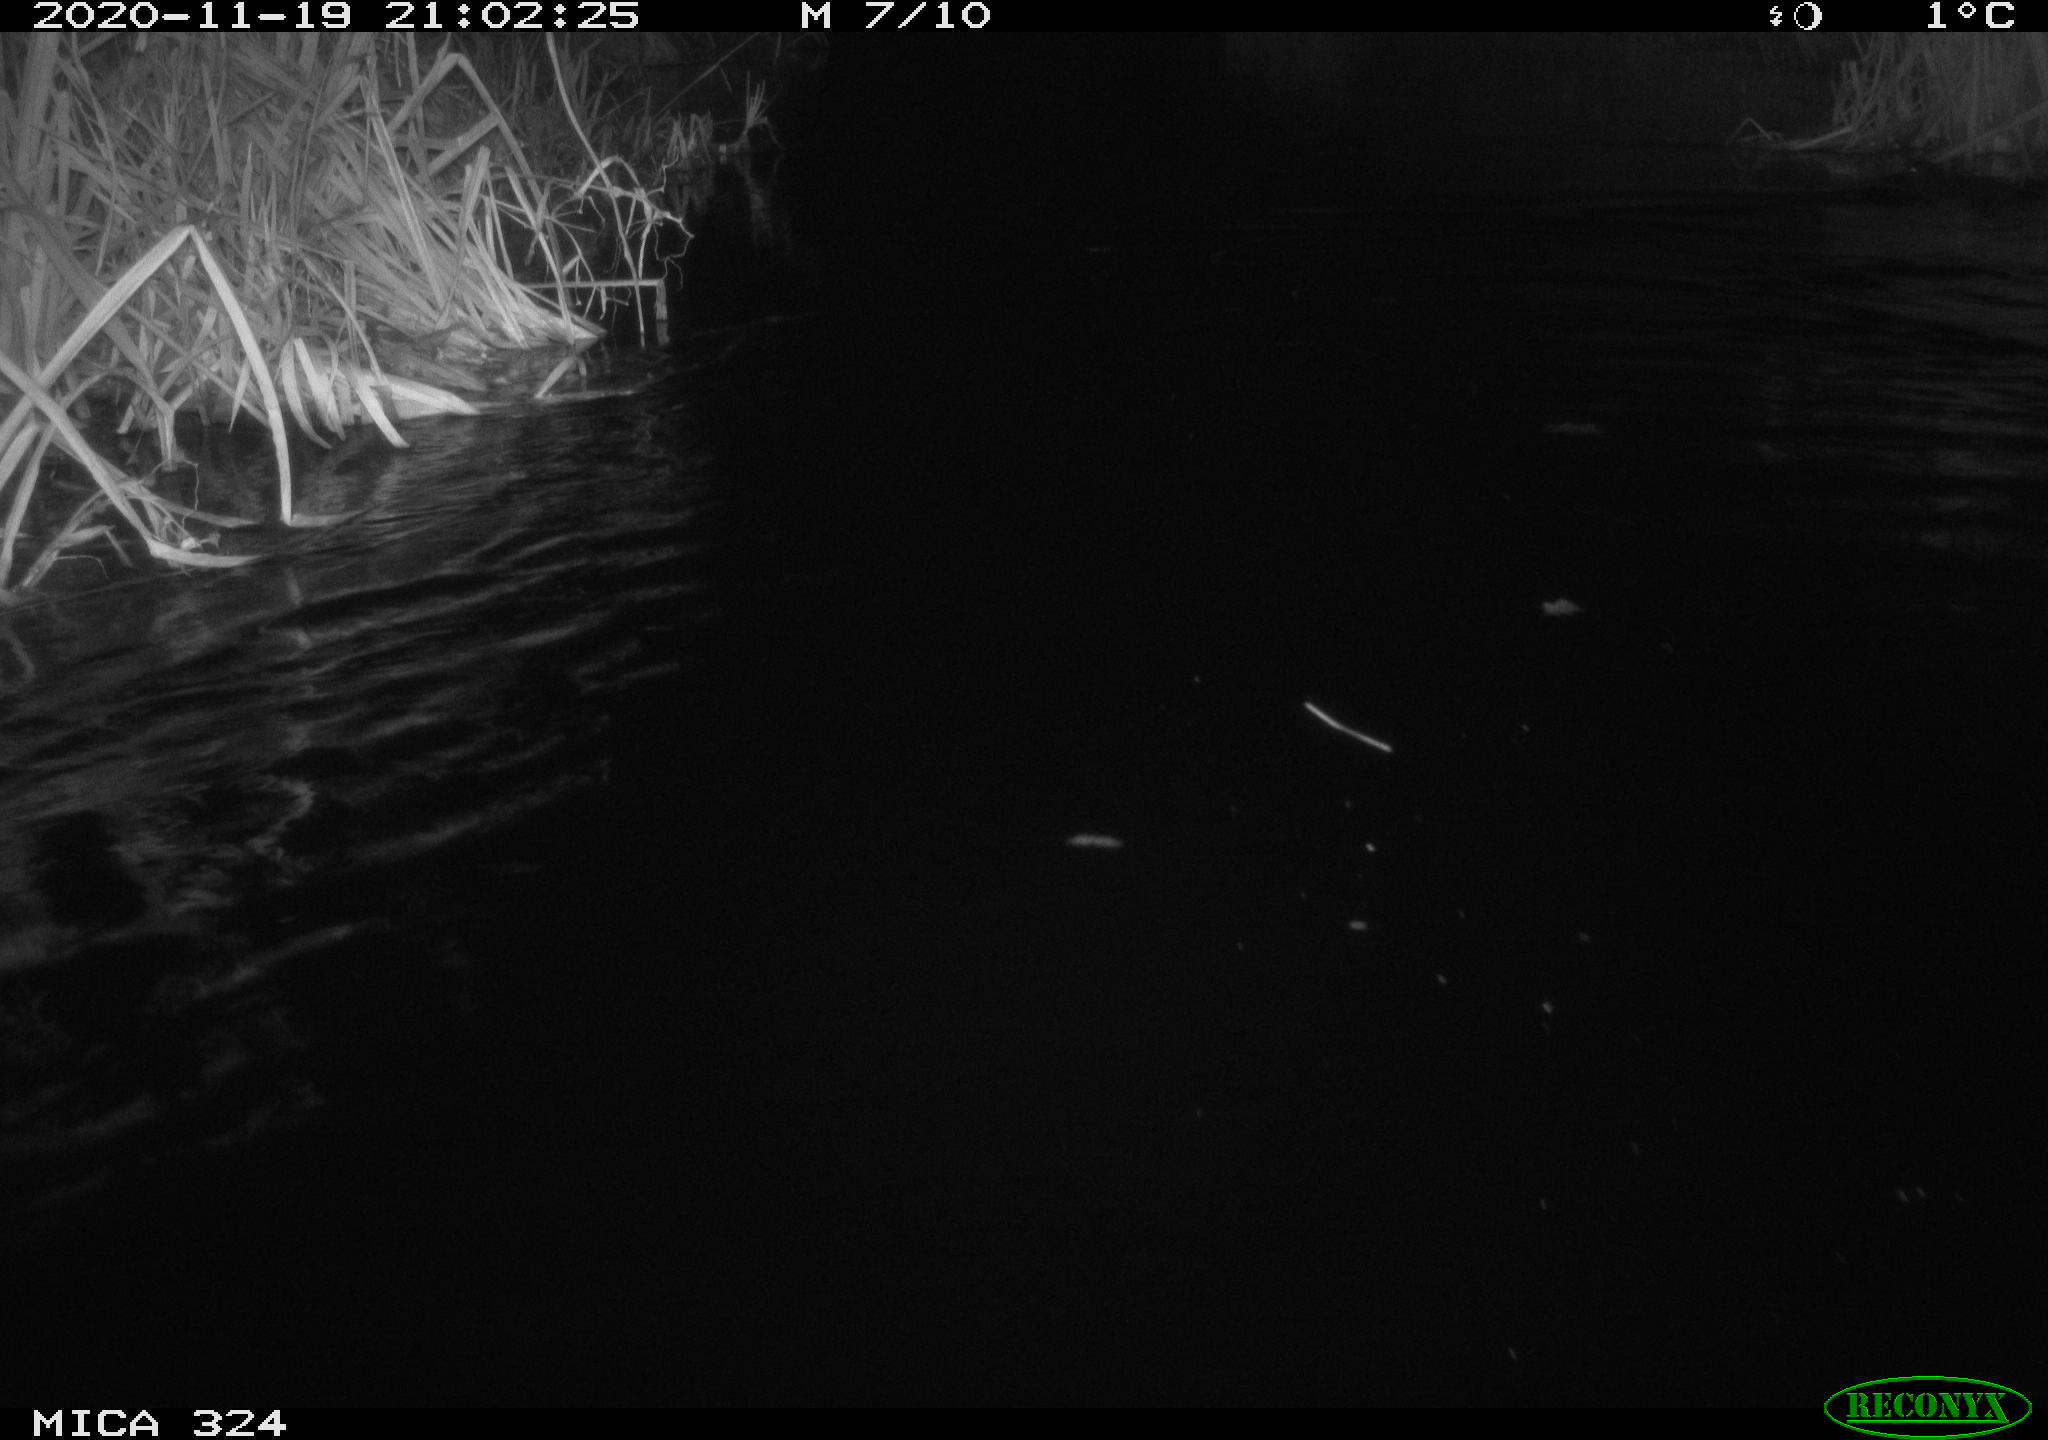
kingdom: Animalia
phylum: Chordata
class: Mammalia
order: Rodentia
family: Myocastoridae
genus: Myocastor
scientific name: Myocastor coypus
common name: Coypu
